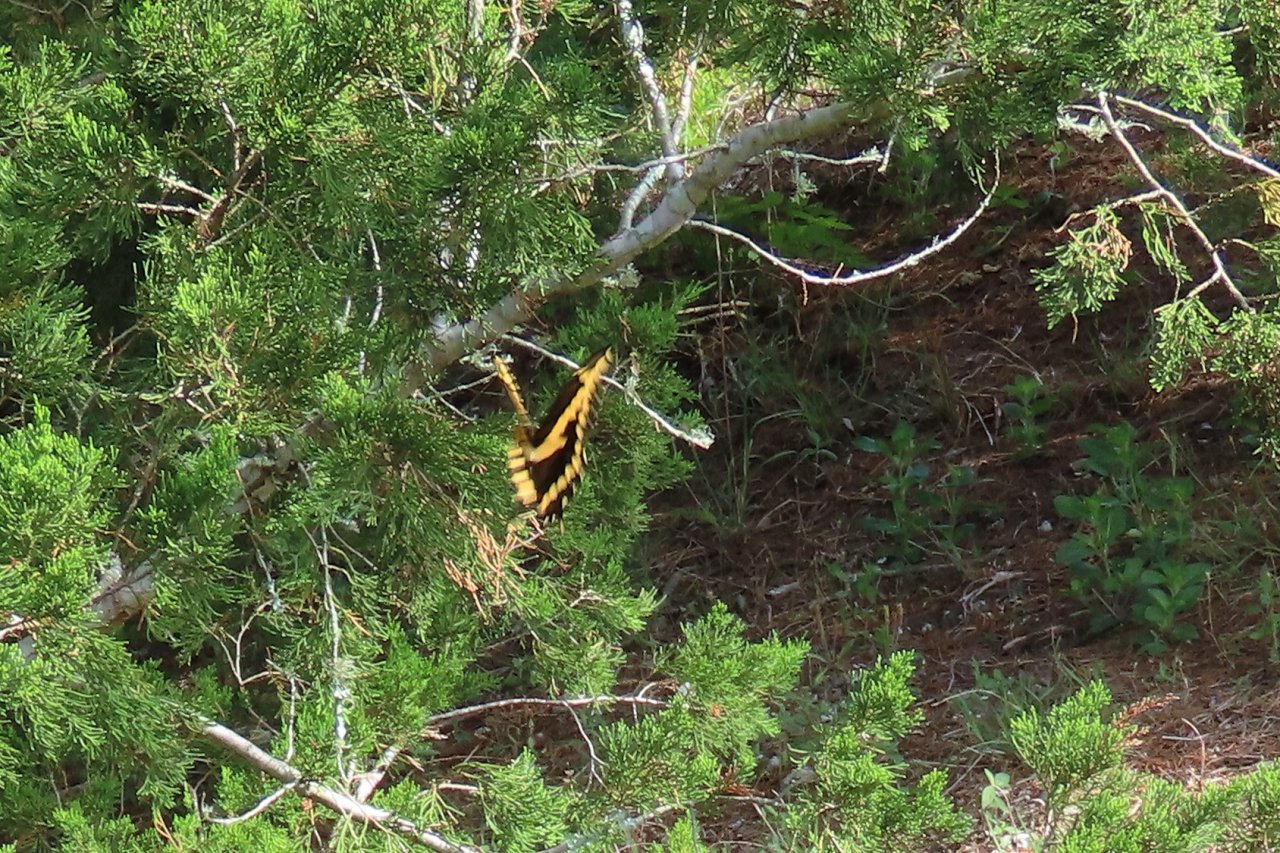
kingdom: Animalia
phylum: Arthropoda
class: Insecta
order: Lepidoptera
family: Papilionidae
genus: Papilio
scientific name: Papilio cresphontes
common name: Eastern Giant Swallowtail
